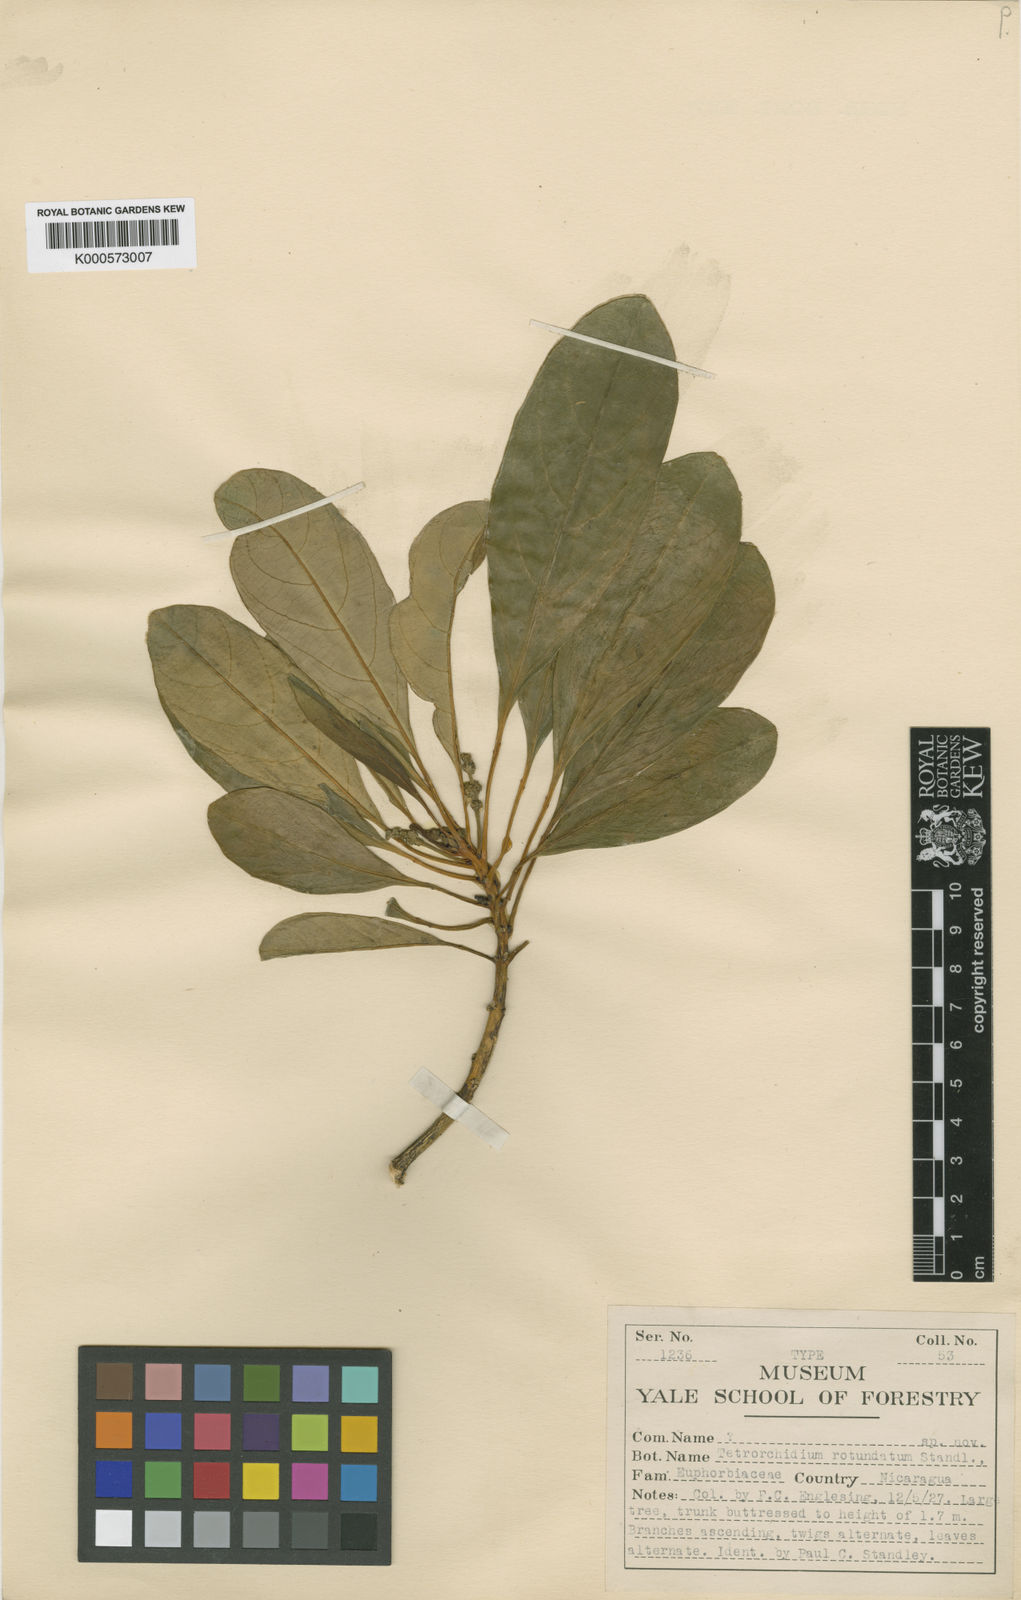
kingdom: Plantae
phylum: Tracheophyta
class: Magnoliopsida
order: Malpighiales
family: Euphorbiaceae
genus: Tetrorchidium
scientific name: Tetrorchidium rotundatum
